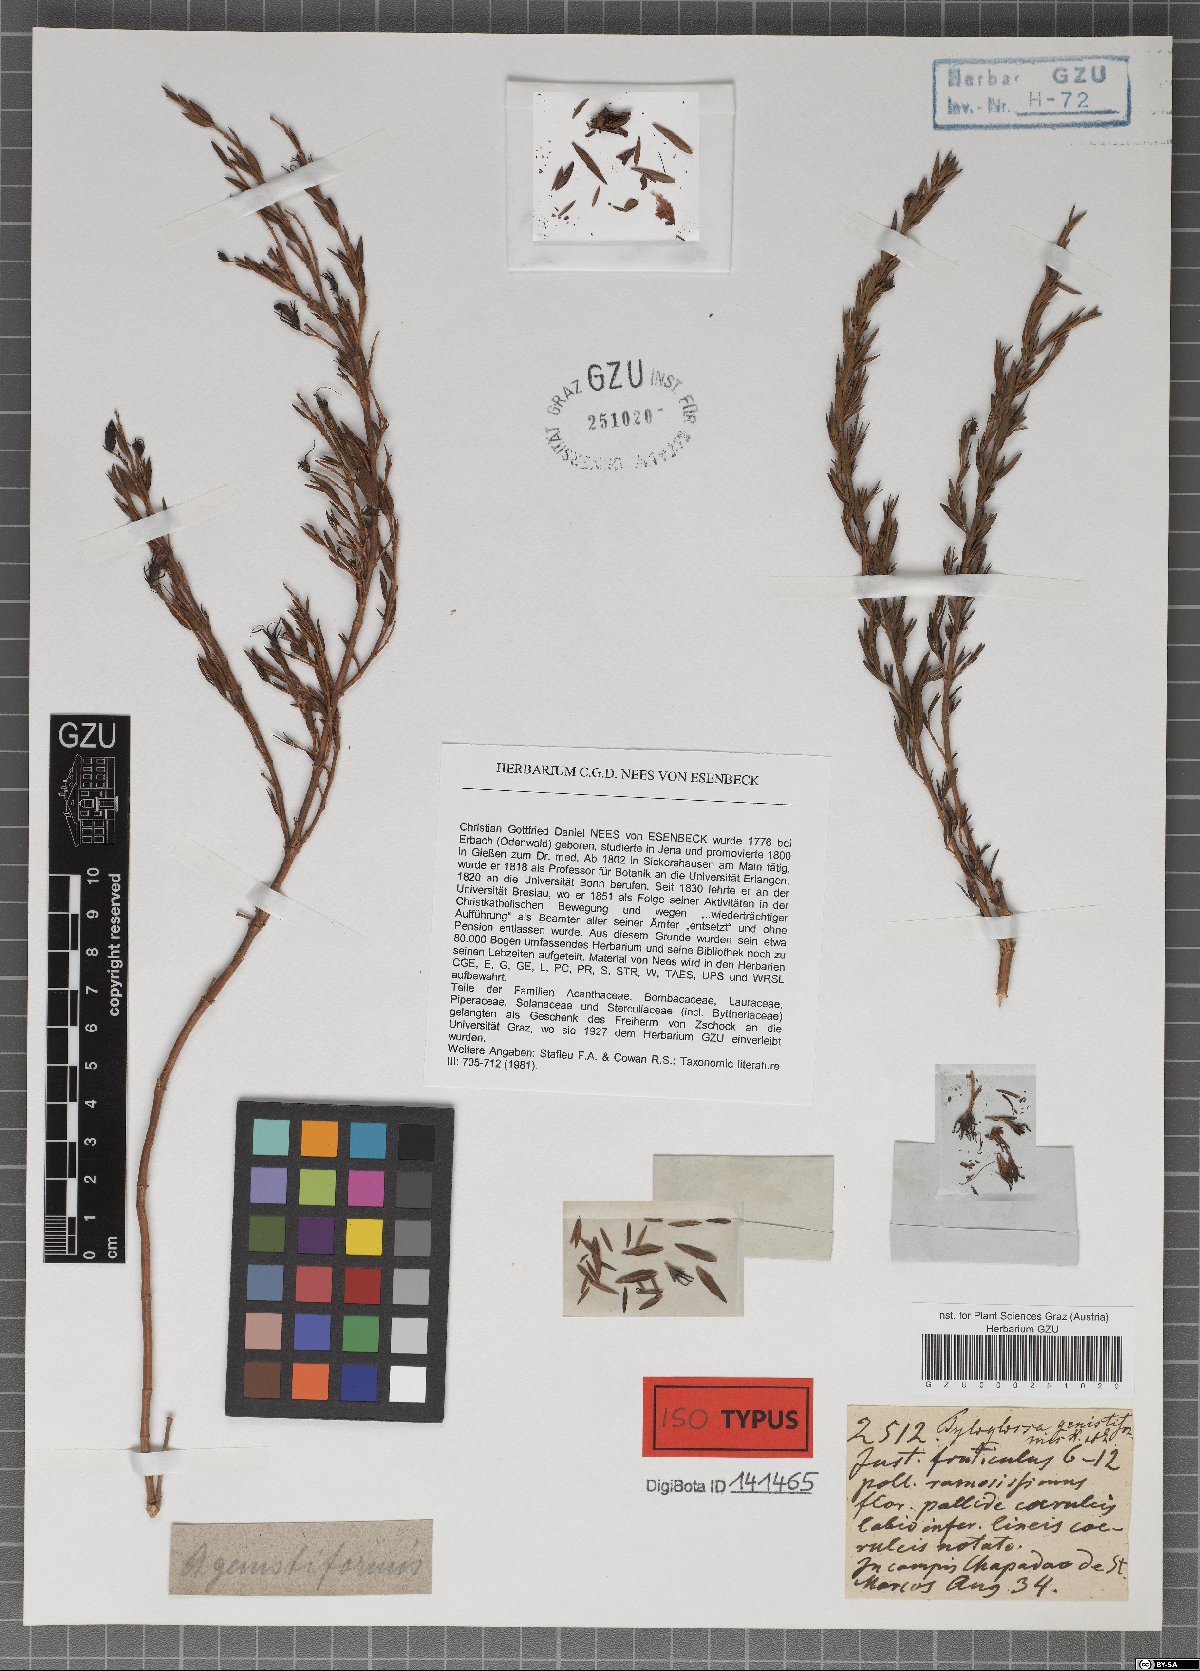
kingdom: Plantae
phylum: Tracheophyta
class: Magnoliopsida
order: Lamiales
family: Acanthaceae
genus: Justicia
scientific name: Justicia Tyloglossa genistiformis
